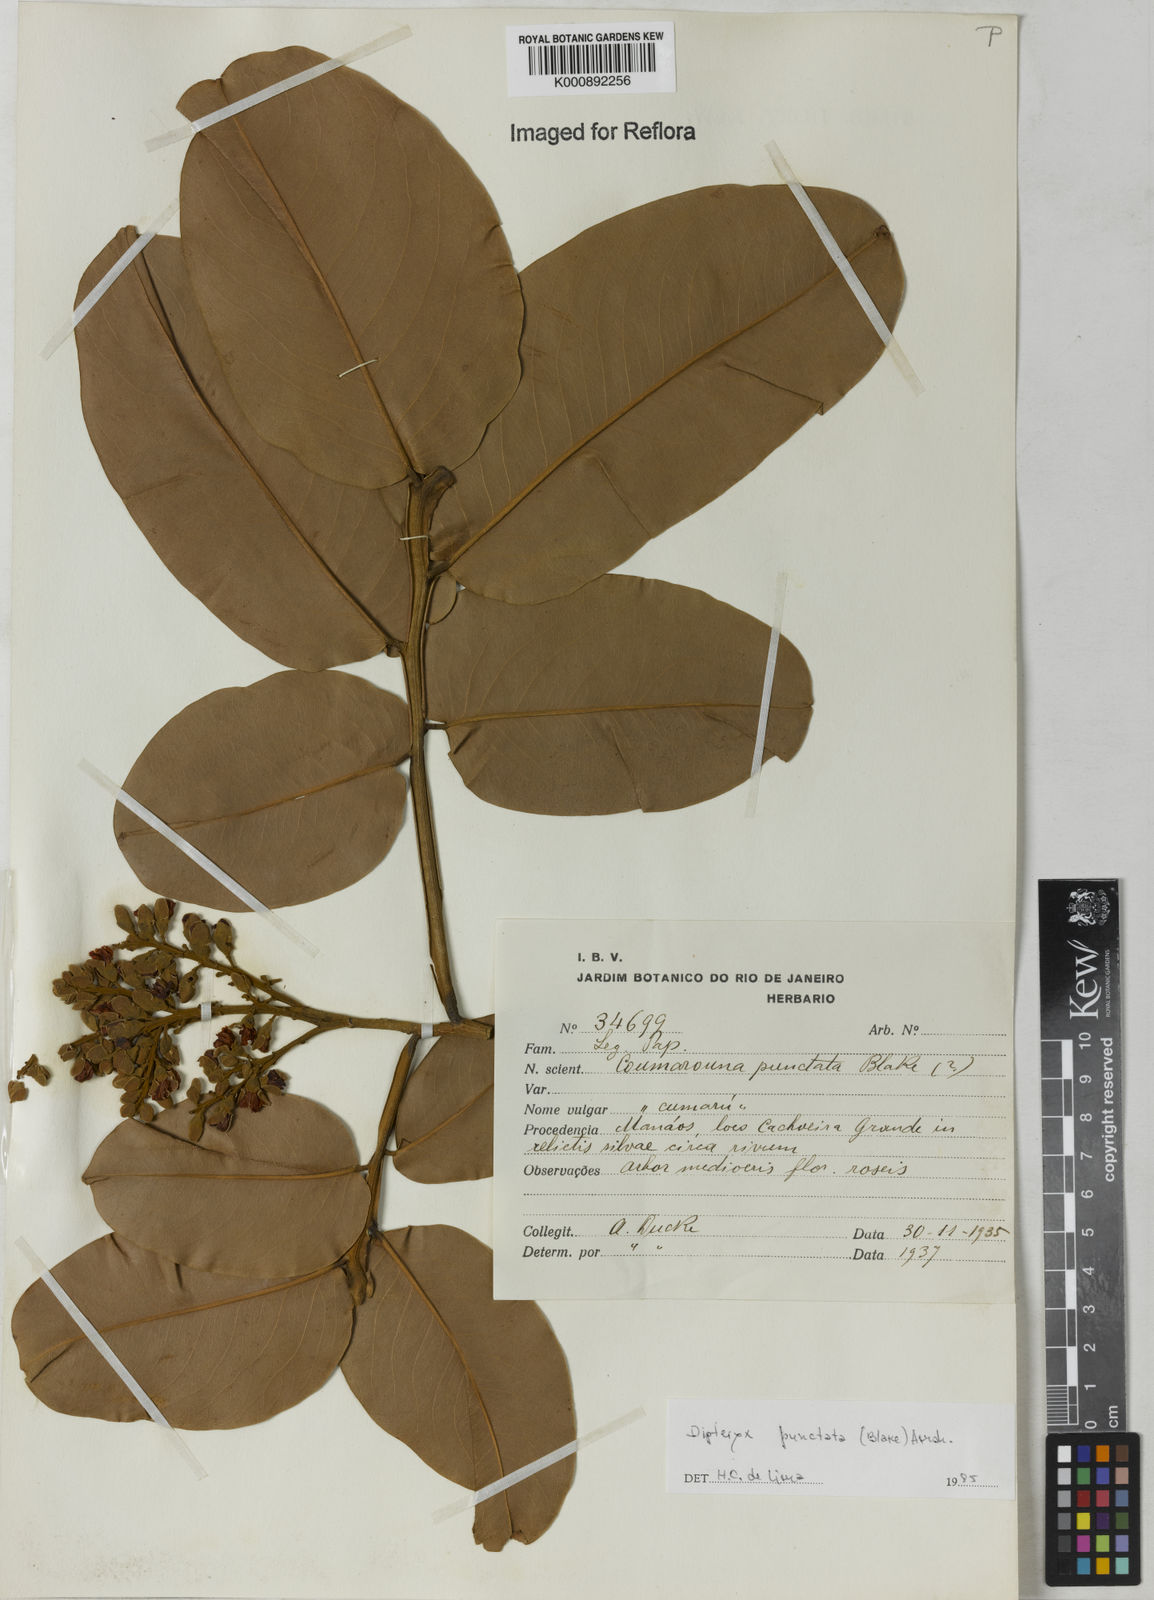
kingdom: Plantae
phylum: Tracheophyta
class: Magnoliopsida
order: Fabales
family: Fabaceae
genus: Dipteryx
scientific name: Dipteryx punctata
